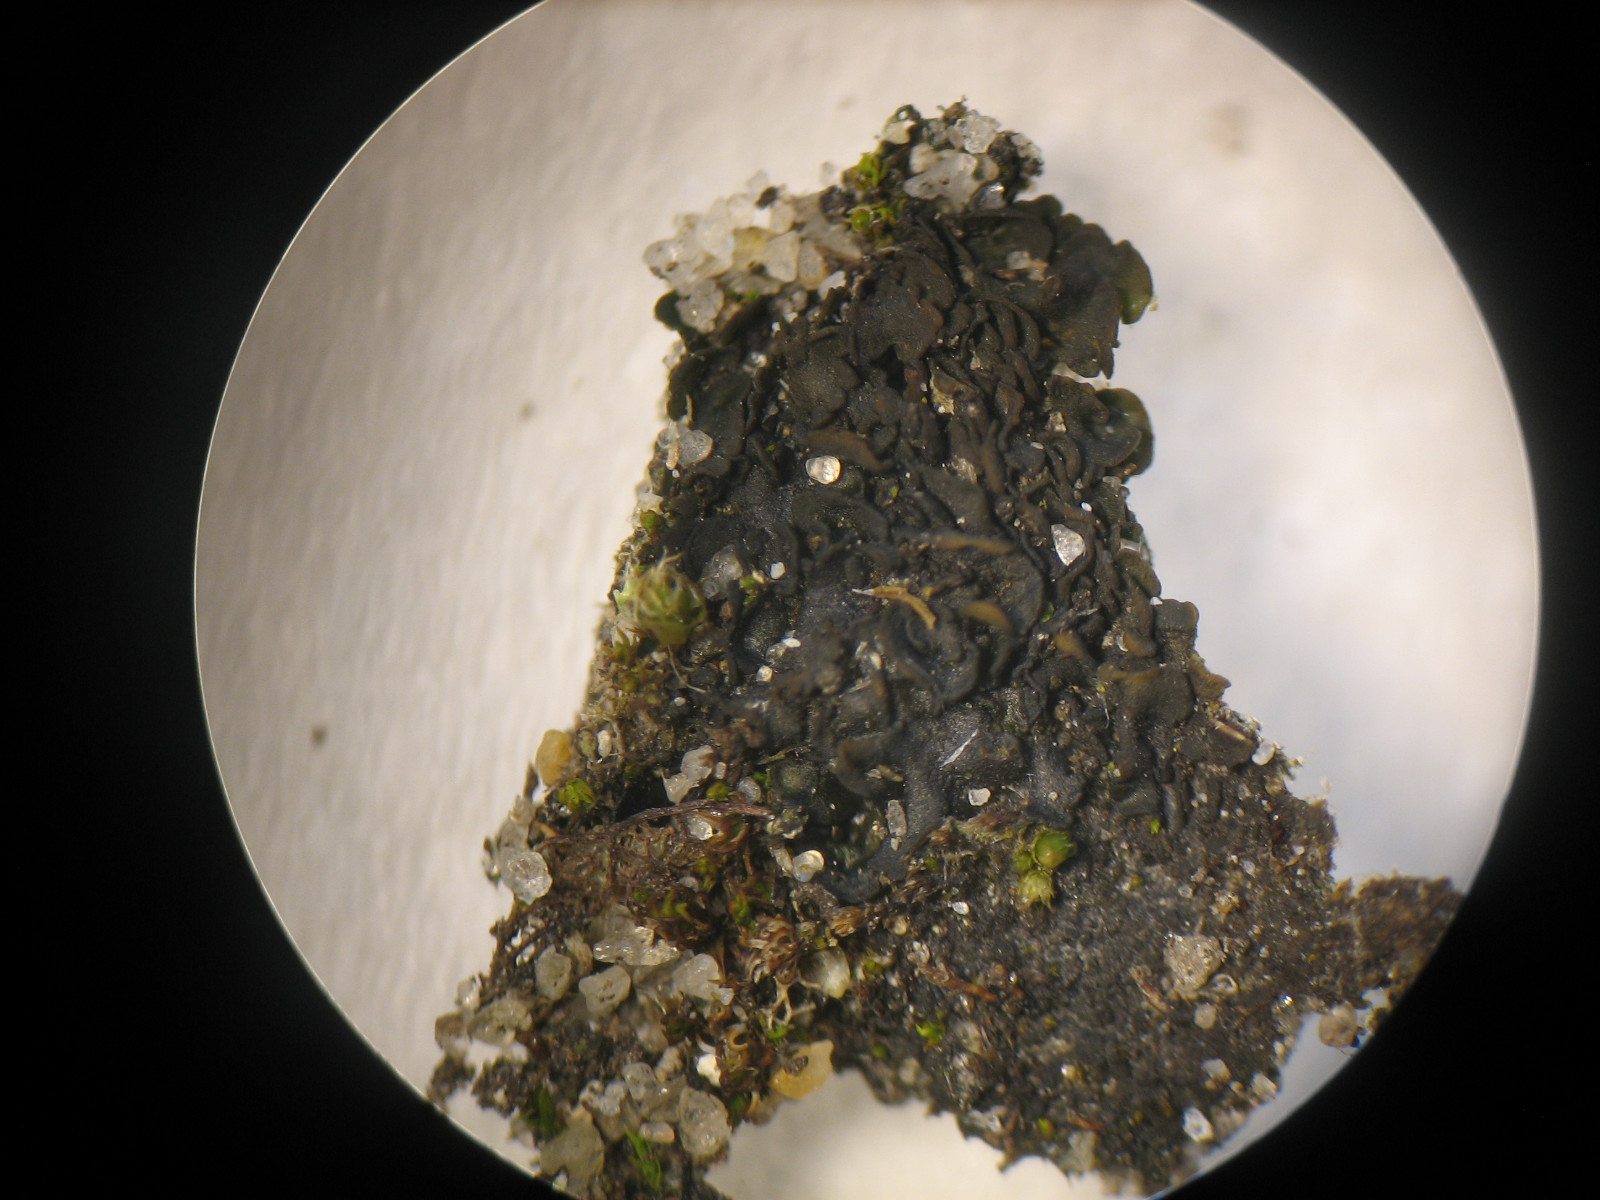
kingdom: Fungi
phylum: Ascomycota
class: Lecanoromycetes
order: Peltigerales
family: Collemataceae
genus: Blennothallia
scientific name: Blennothallia crispa
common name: kruset bævrelav
